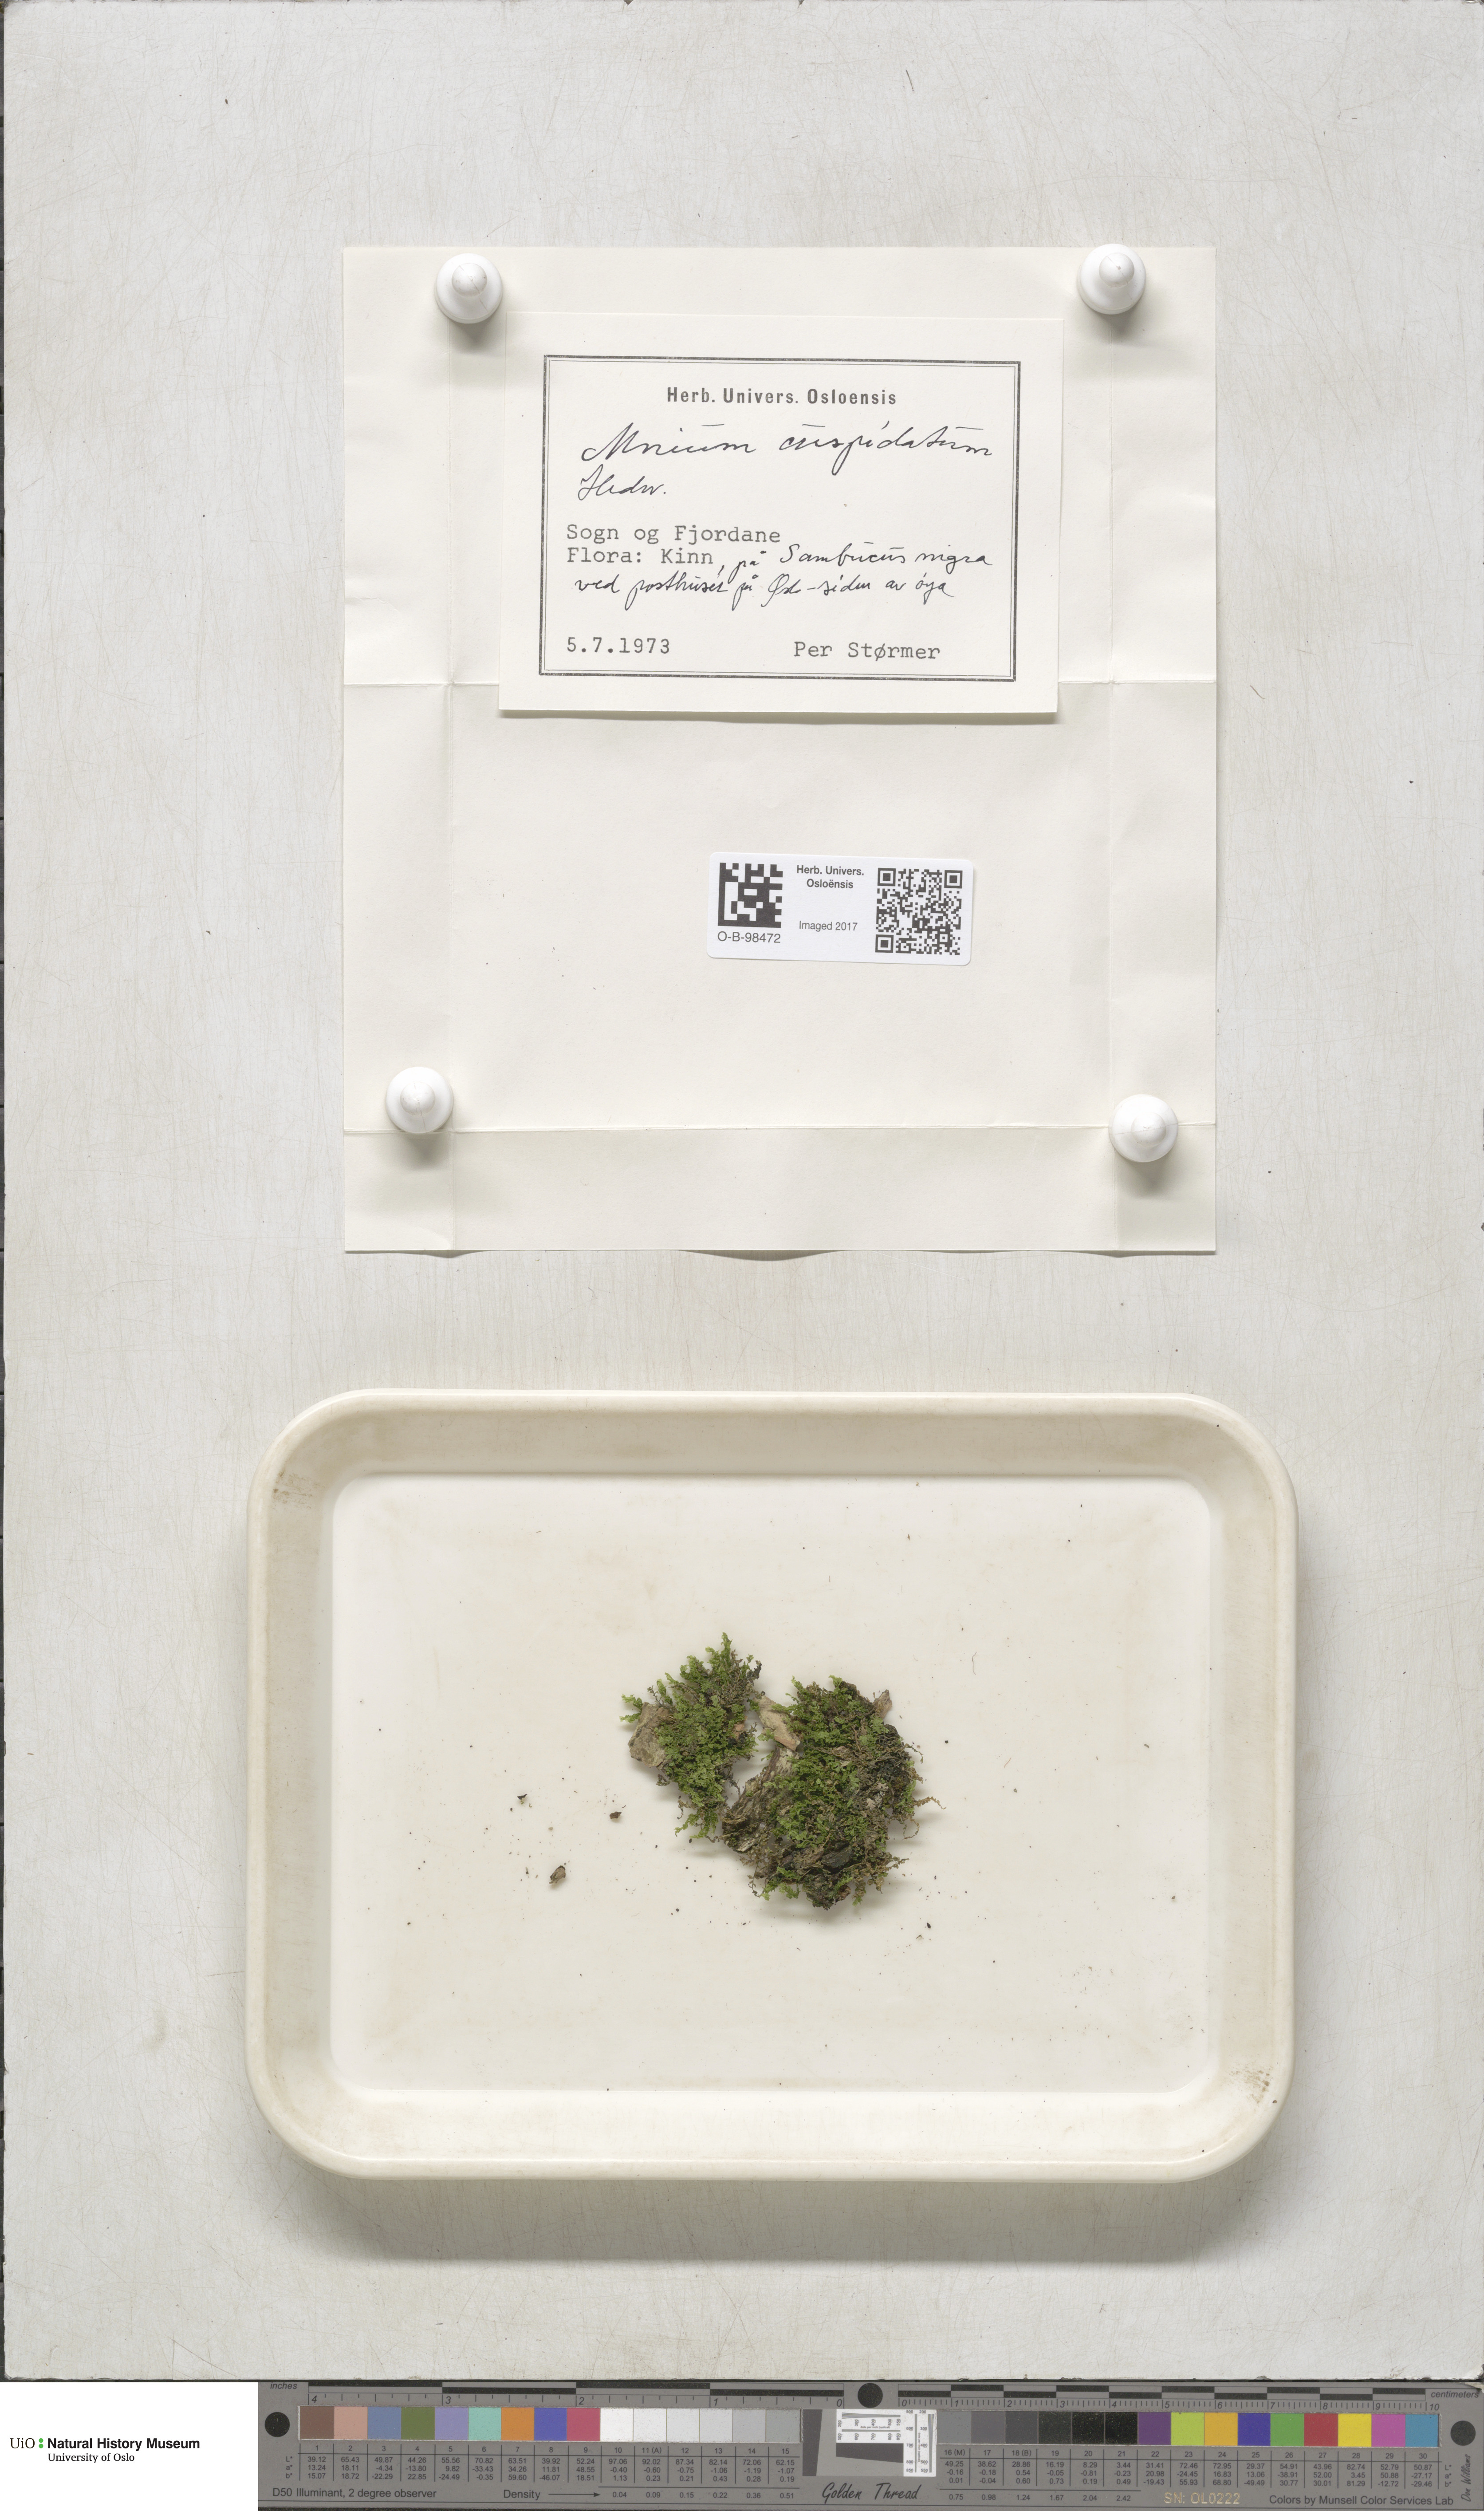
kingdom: Plantae
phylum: Bryophyta
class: Bryopsida
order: Bryales
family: Mniaceae
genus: Plagiomnium
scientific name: Plagiomnium cuspidatum
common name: Woodsy leafy moss
